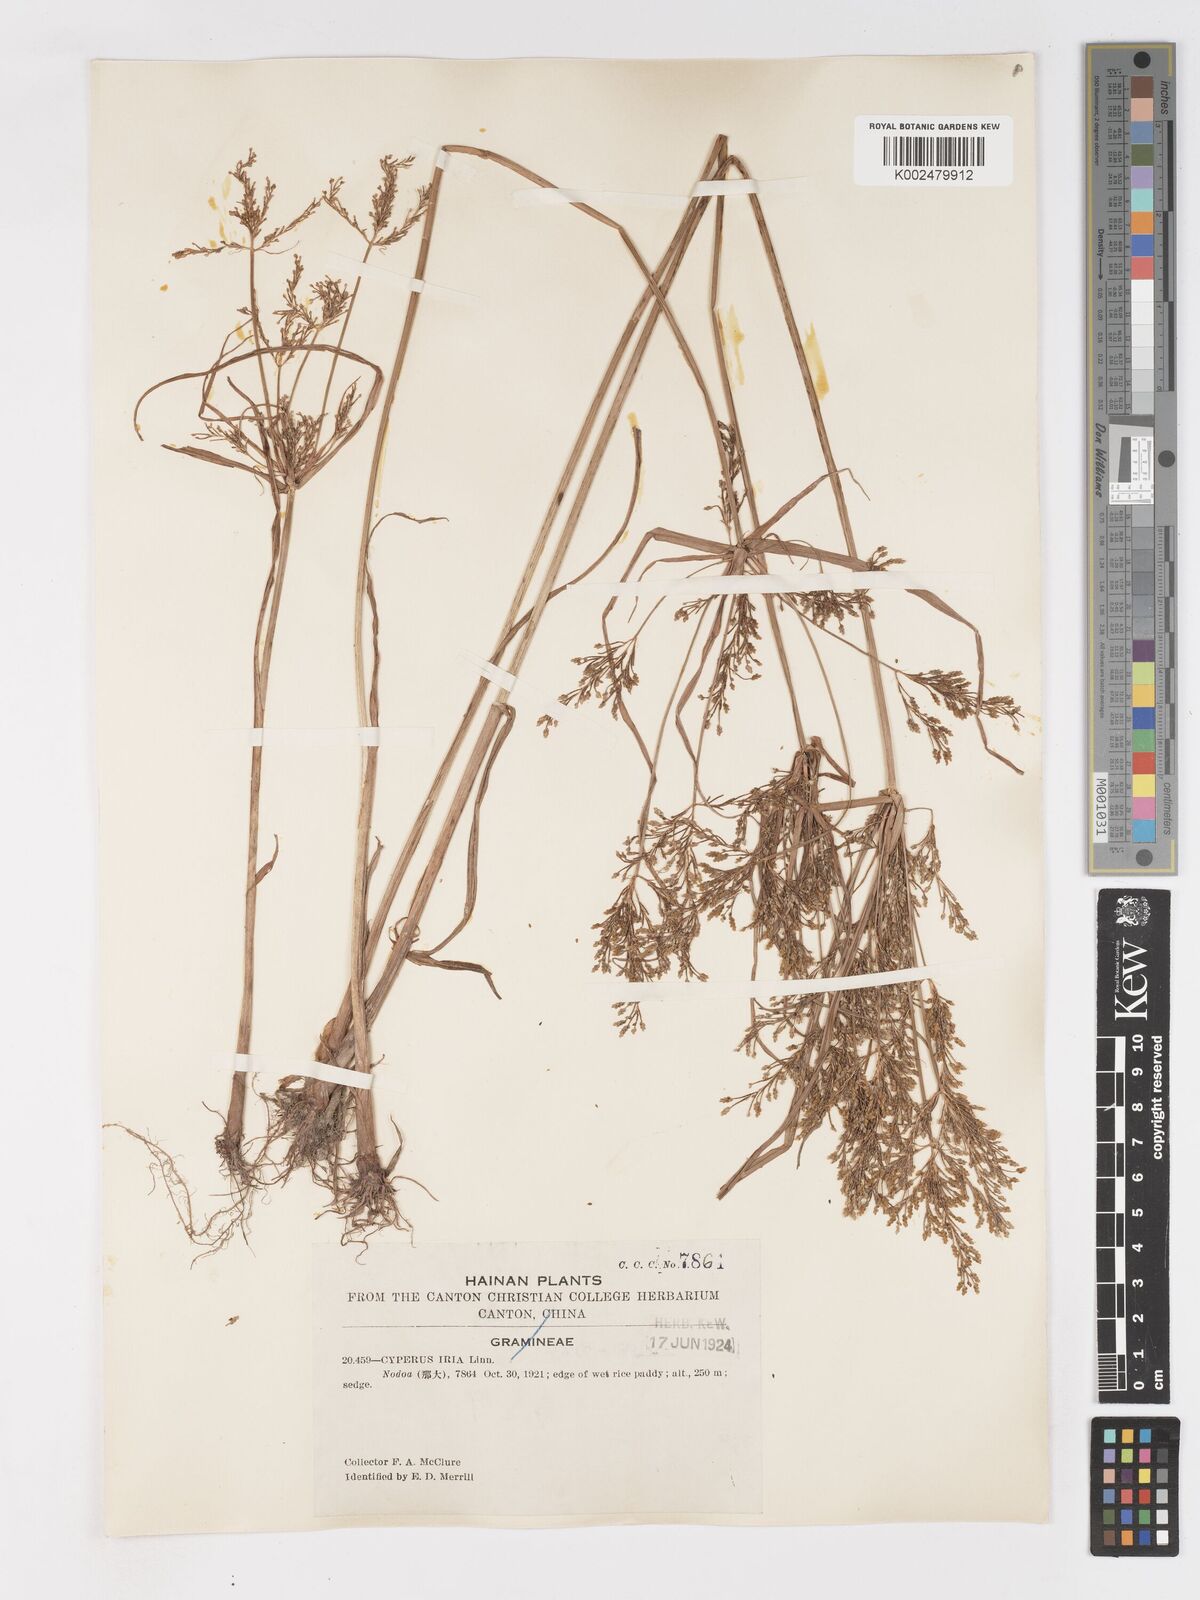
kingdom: Plantae
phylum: Tracheophyta
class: Liliopsida
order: Poales
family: Cyperaceae
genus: Cyperus
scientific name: Cyperus iria
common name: Ricefield flatsedge
